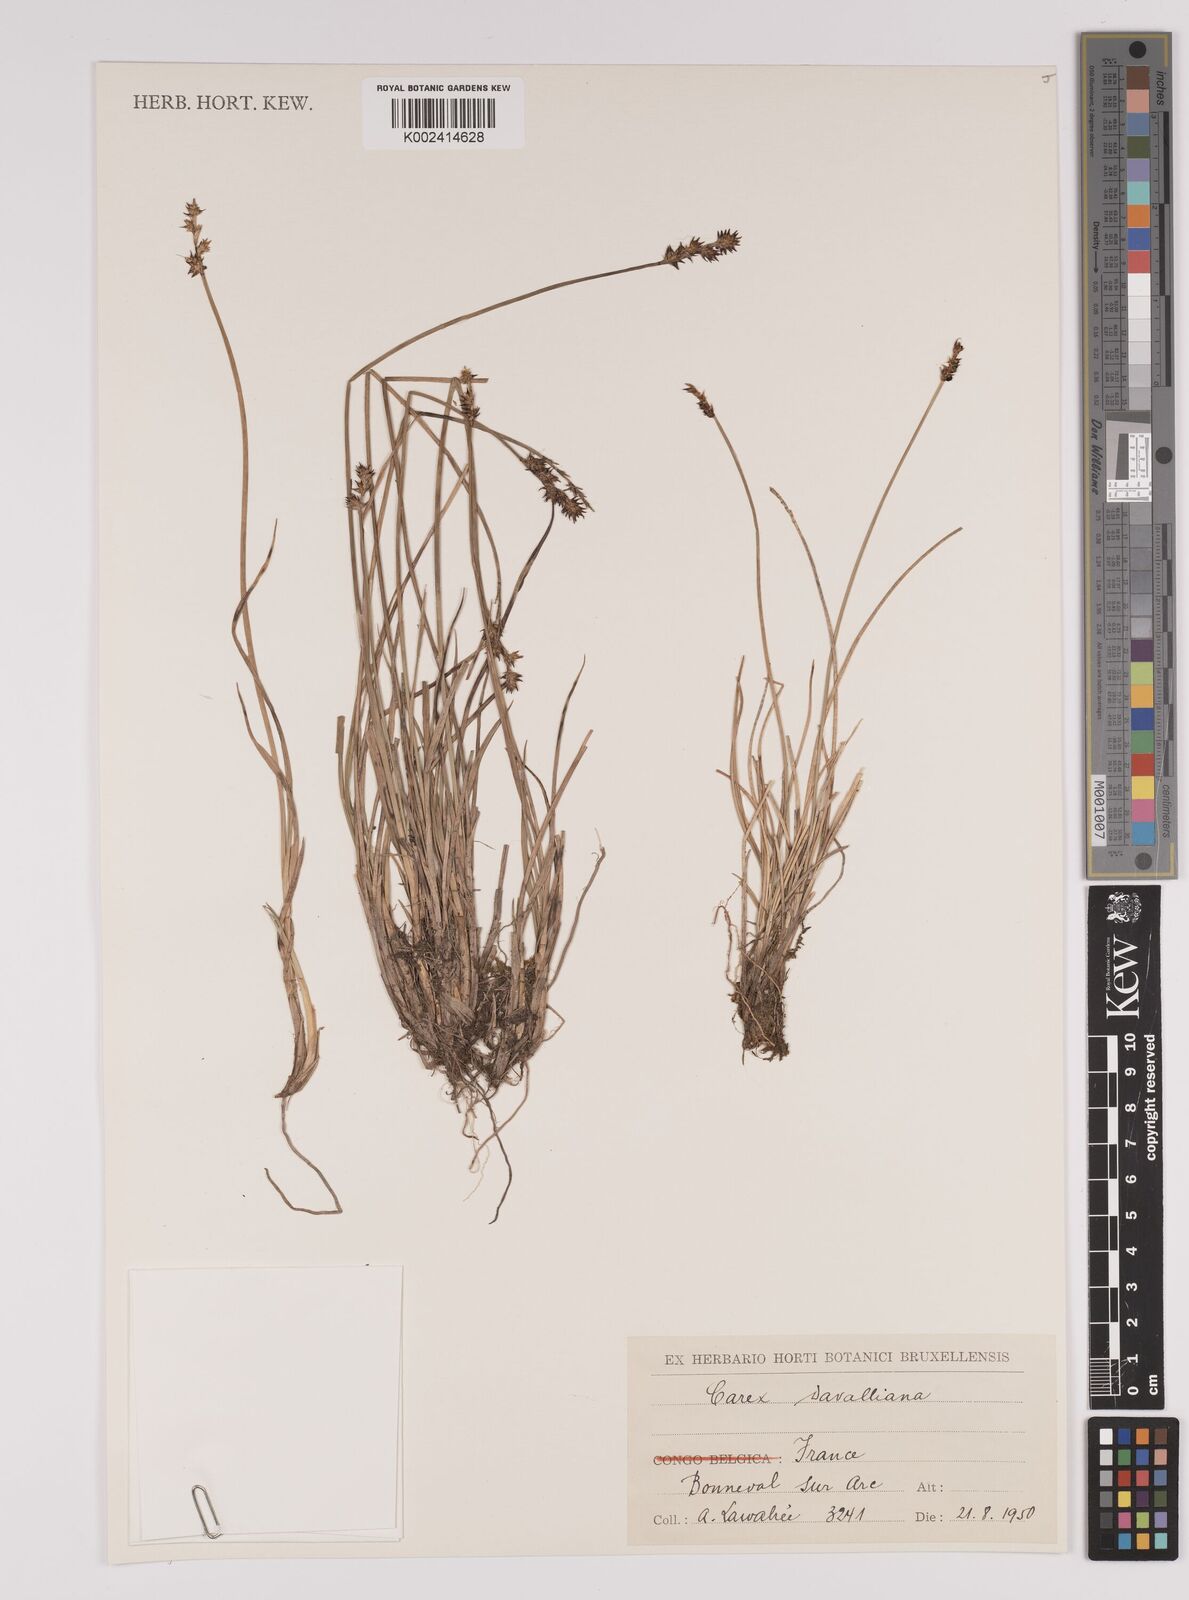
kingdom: Plantae
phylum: Tracheophyta
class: Liliopsida
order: Poales
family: Cyperaceae
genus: Carex
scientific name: Carex davalliana
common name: Davall's sedge
